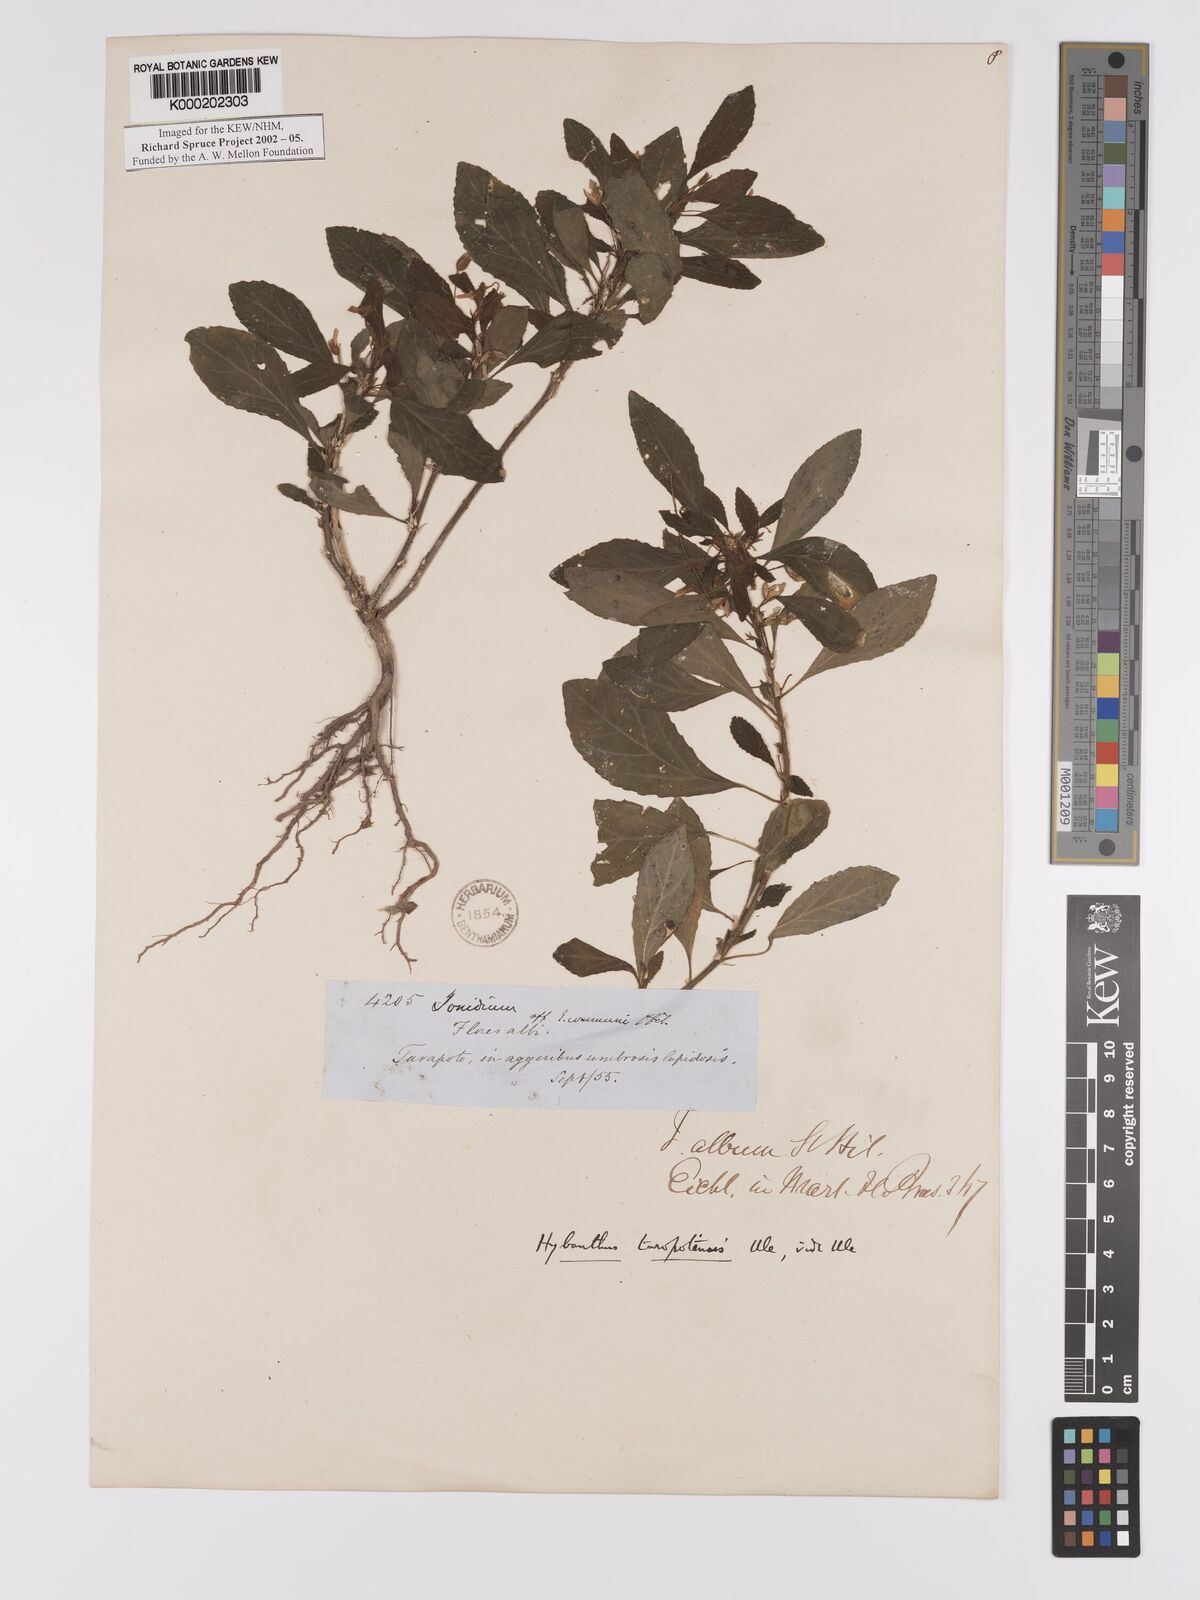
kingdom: Plantae
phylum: Tracheophyta
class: Magnoliopsida
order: Malpighiales
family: Violaceae
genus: Hybanthus
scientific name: Hybanthus
